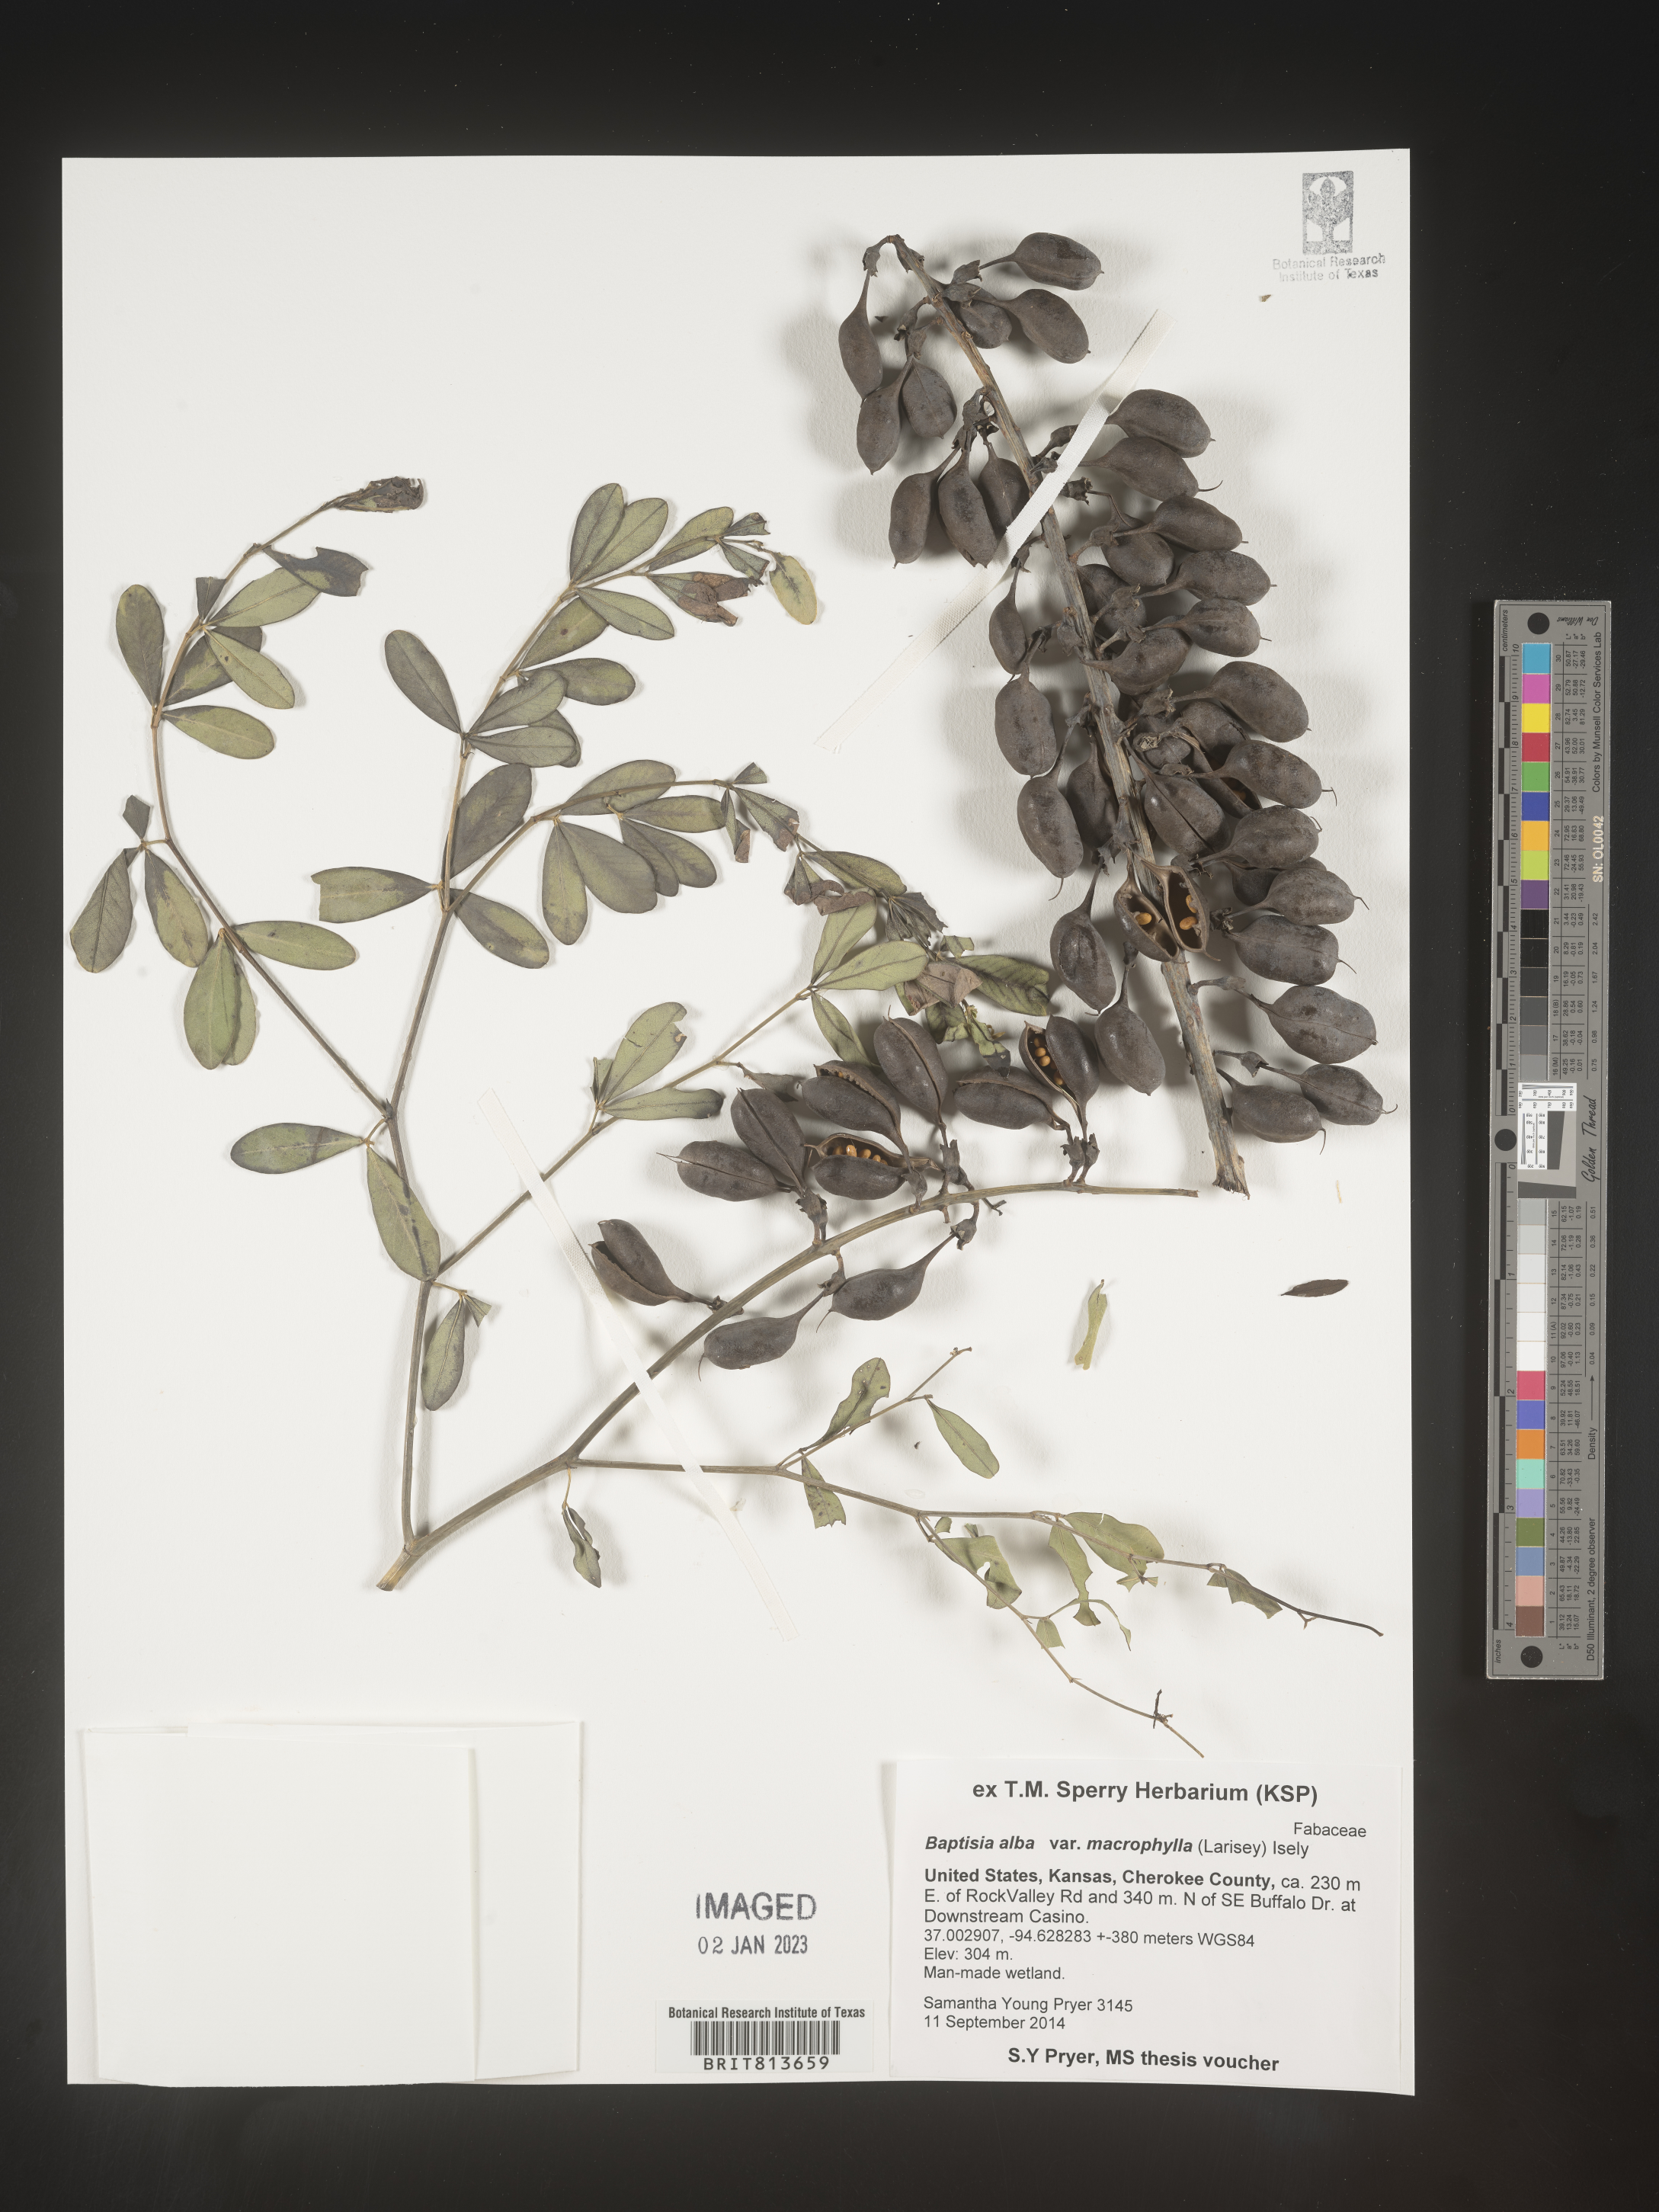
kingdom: Plantae
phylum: Tracheophyta
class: Magnoliopsida
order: Fabales
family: Fabaceae
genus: Baptisia
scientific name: Baptisia alba
